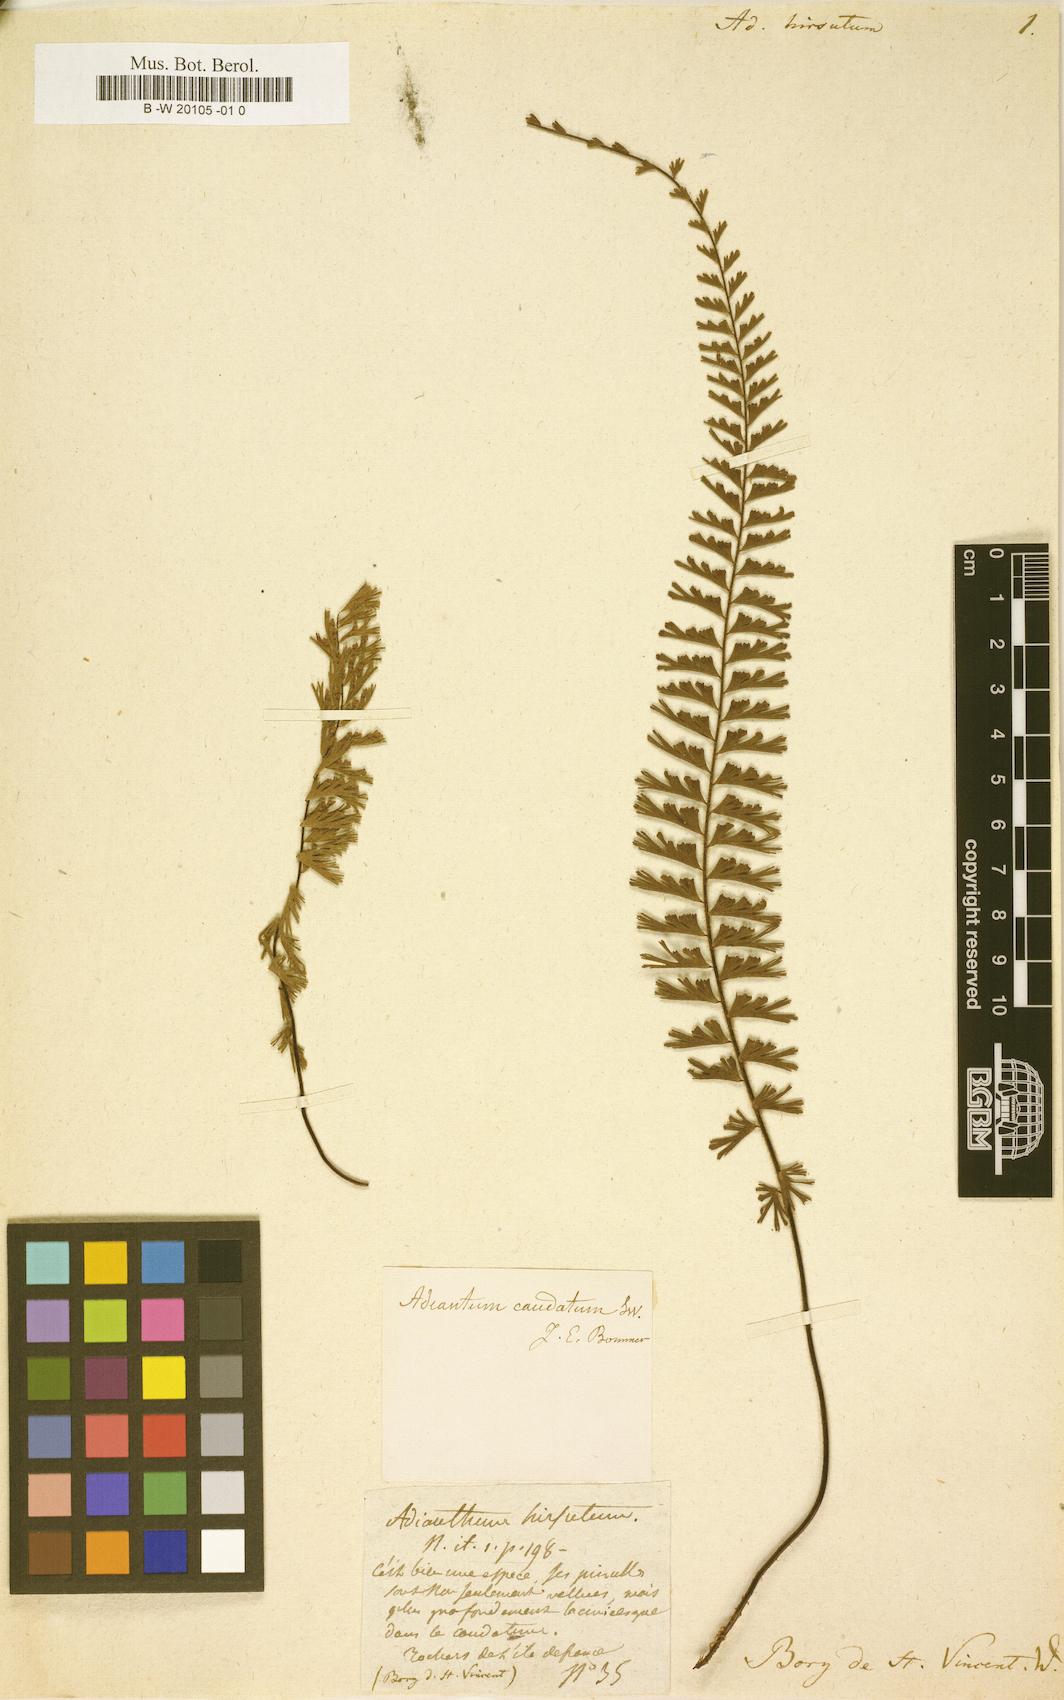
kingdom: Plantae
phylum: Tracheophyta
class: Polypodiopsida
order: Polypodiales
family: Pteridaceae
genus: Adiantum
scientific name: Adiantum hirsutum
